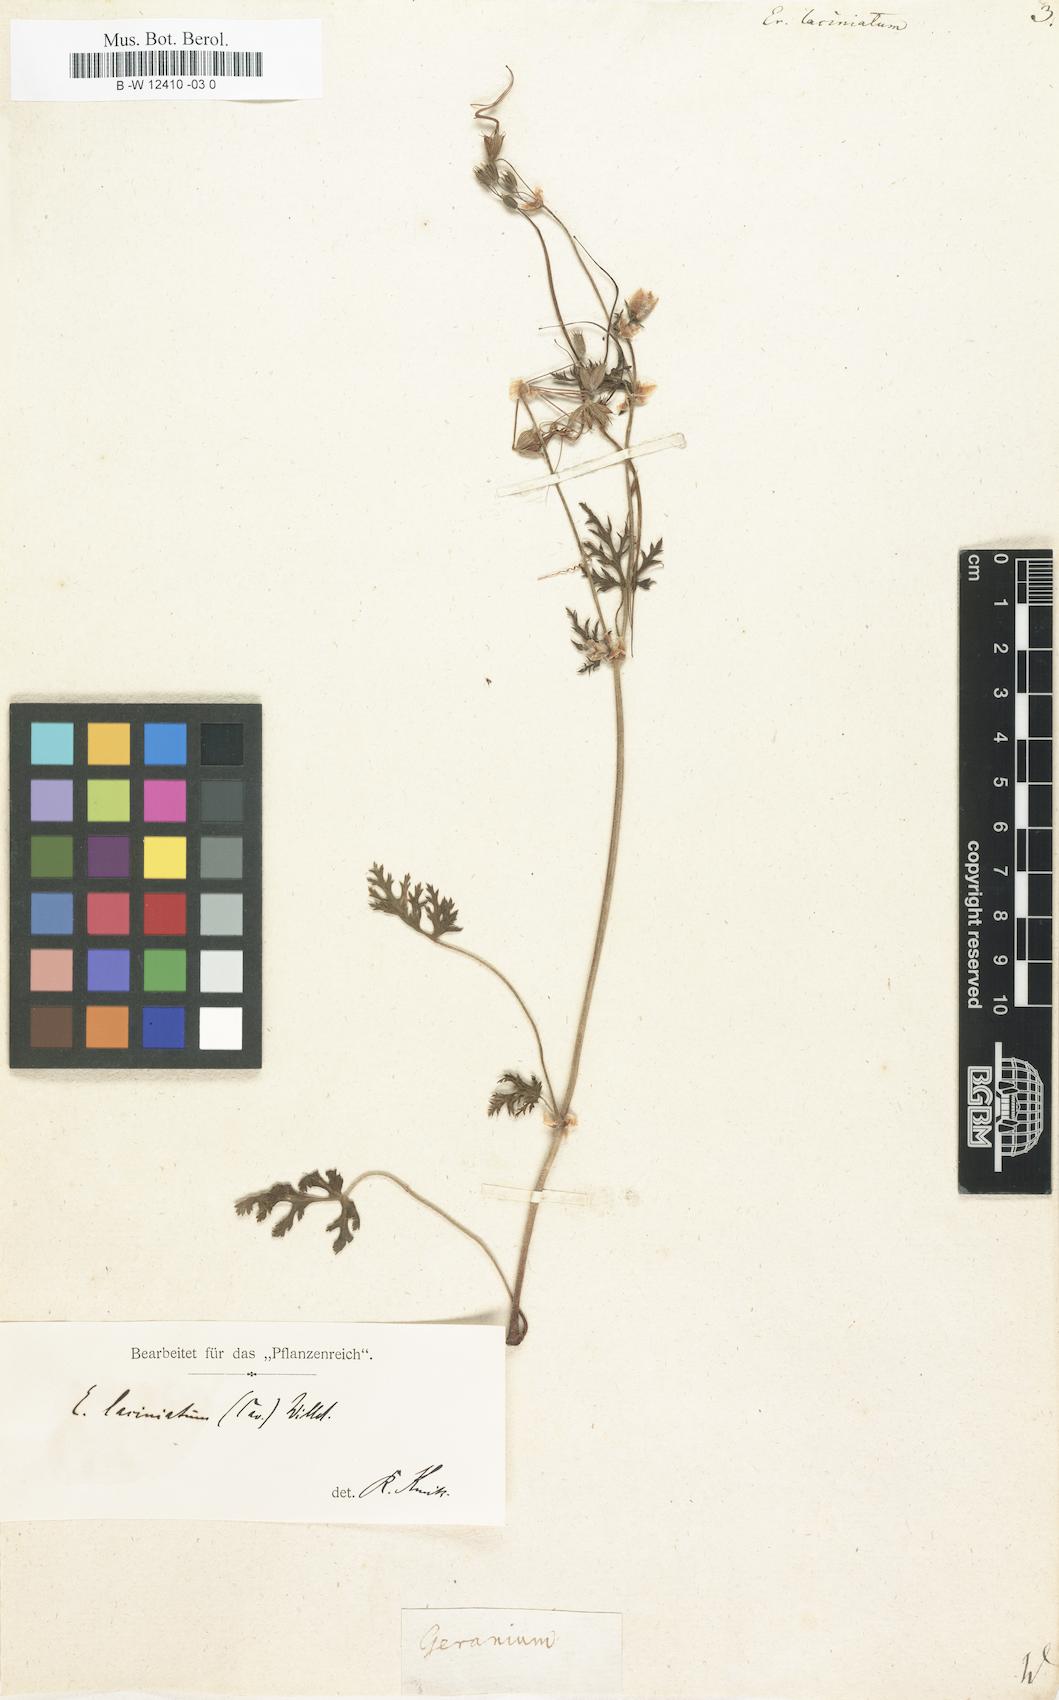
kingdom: Plantae
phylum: Tracheophyta
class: Magnoliopsida
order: Geraniales
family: Geraniaceae
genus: Erodium
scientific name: Erodium laciniatum
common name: Cutleaf stork's bill
